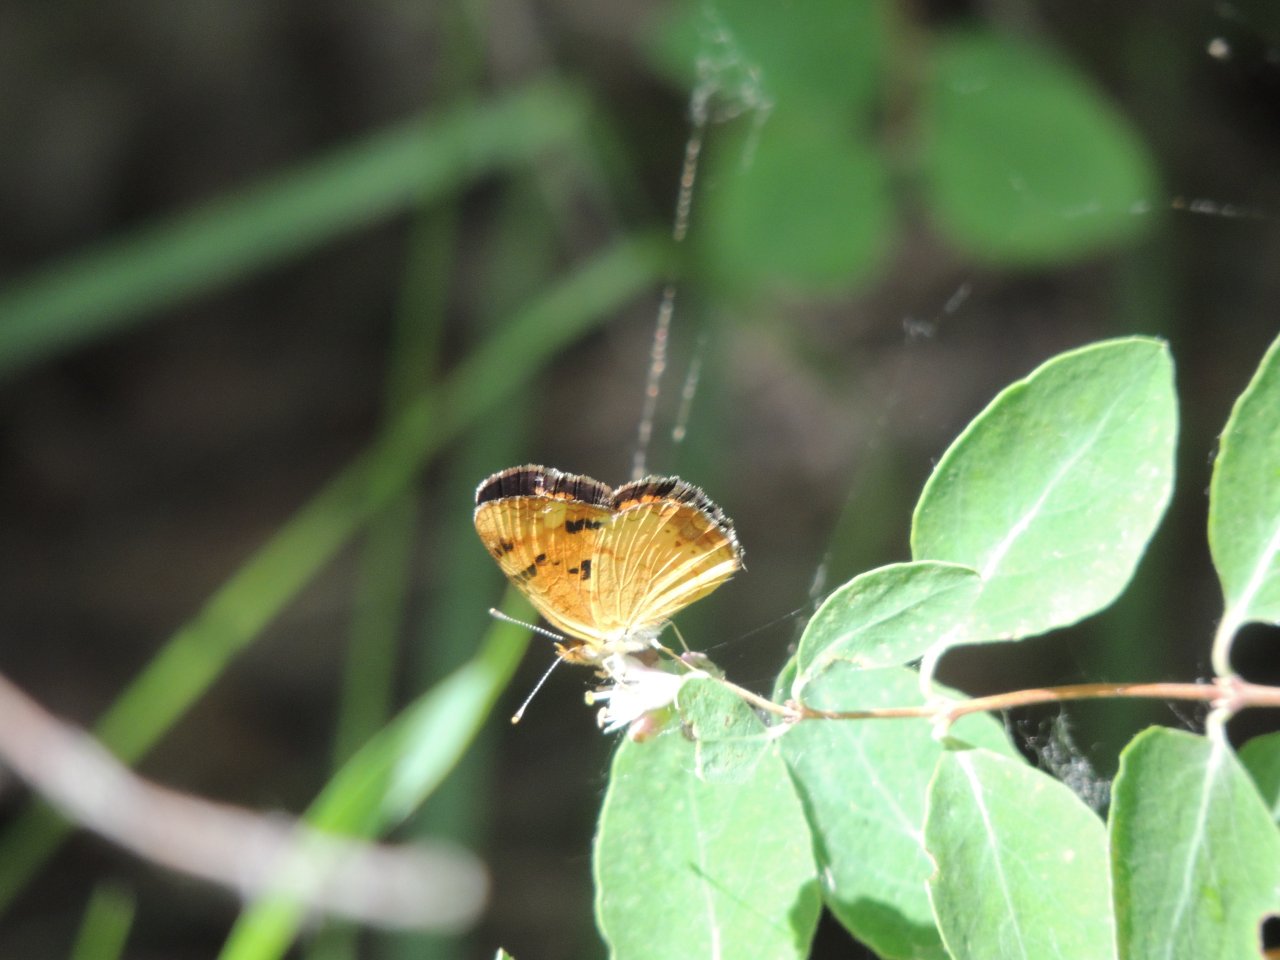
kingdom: Animalia
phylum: Arthropoda
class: Insecta
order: Lepidoptera
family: Nymphalidae
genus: Phyciodes
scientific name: Phyciodes tharos
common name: Northern Crescent
